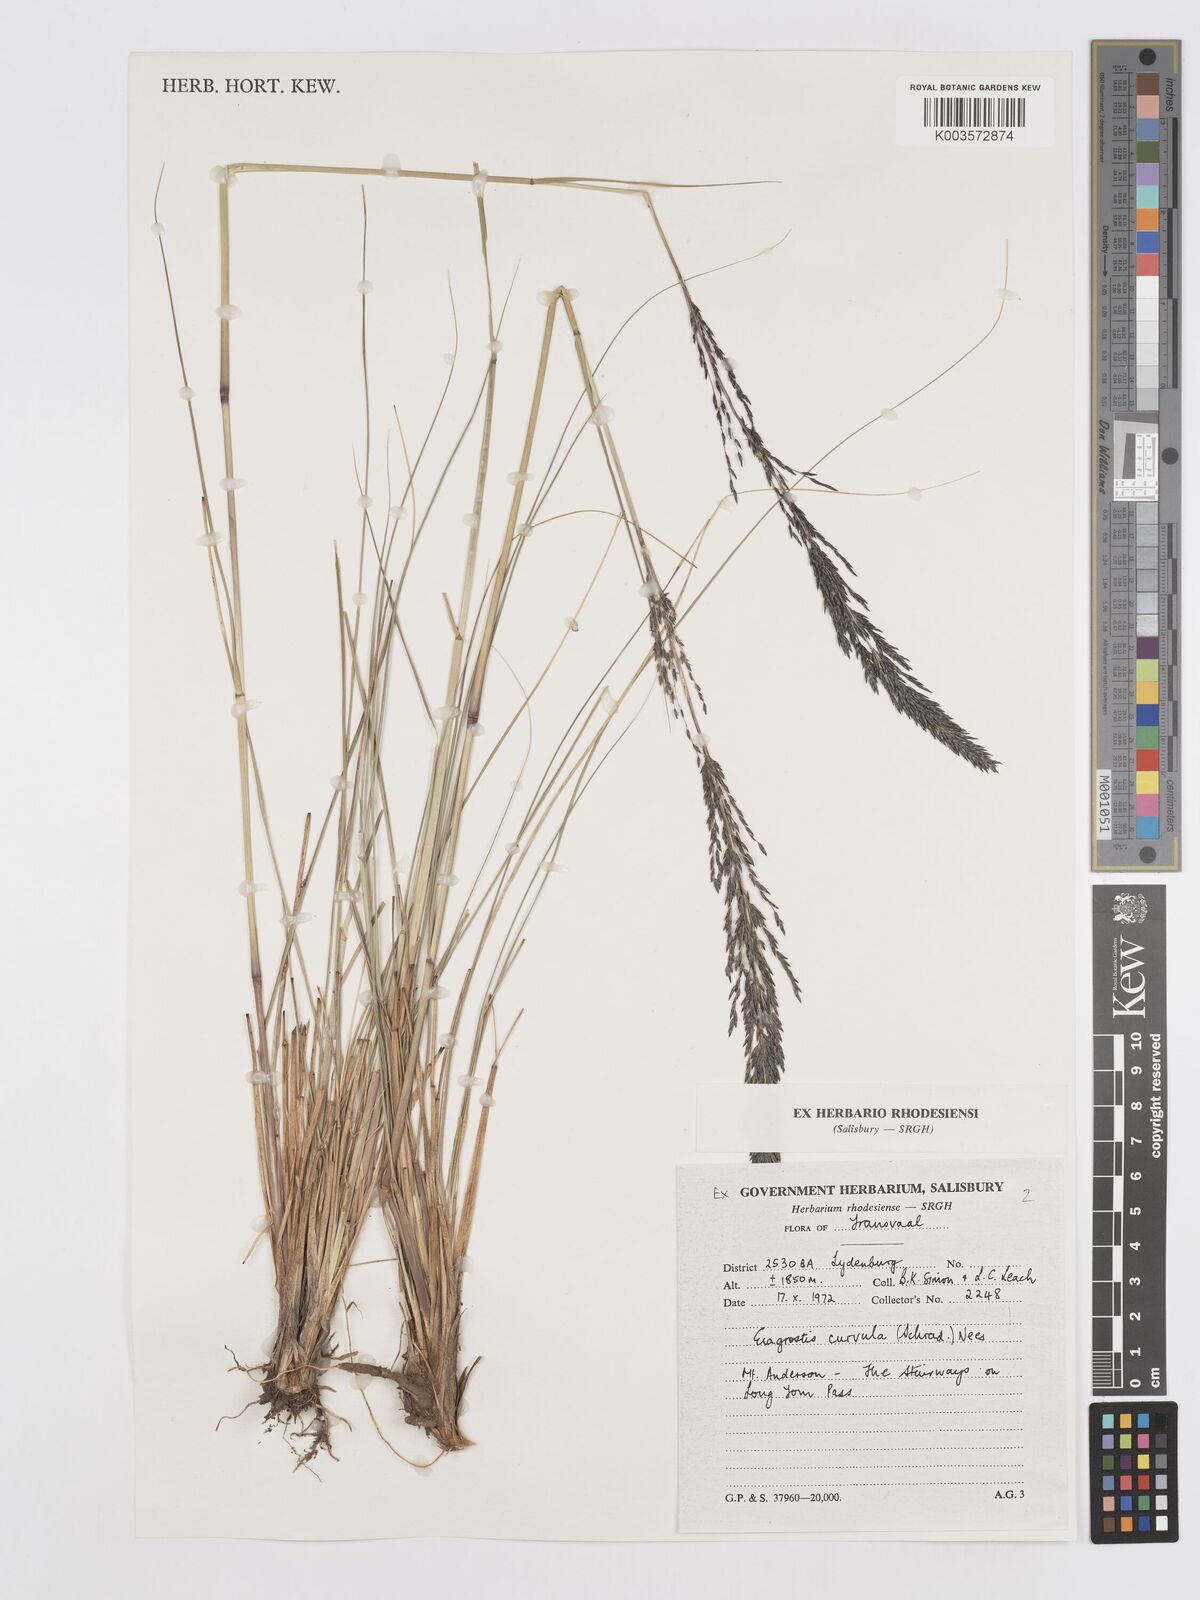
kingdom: Plantae
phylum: Tracheophyta
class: Liliopsida
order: Poales
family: Poaceae
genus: Eragrostis
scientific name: Eragrostis curvula
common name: African love-grass
